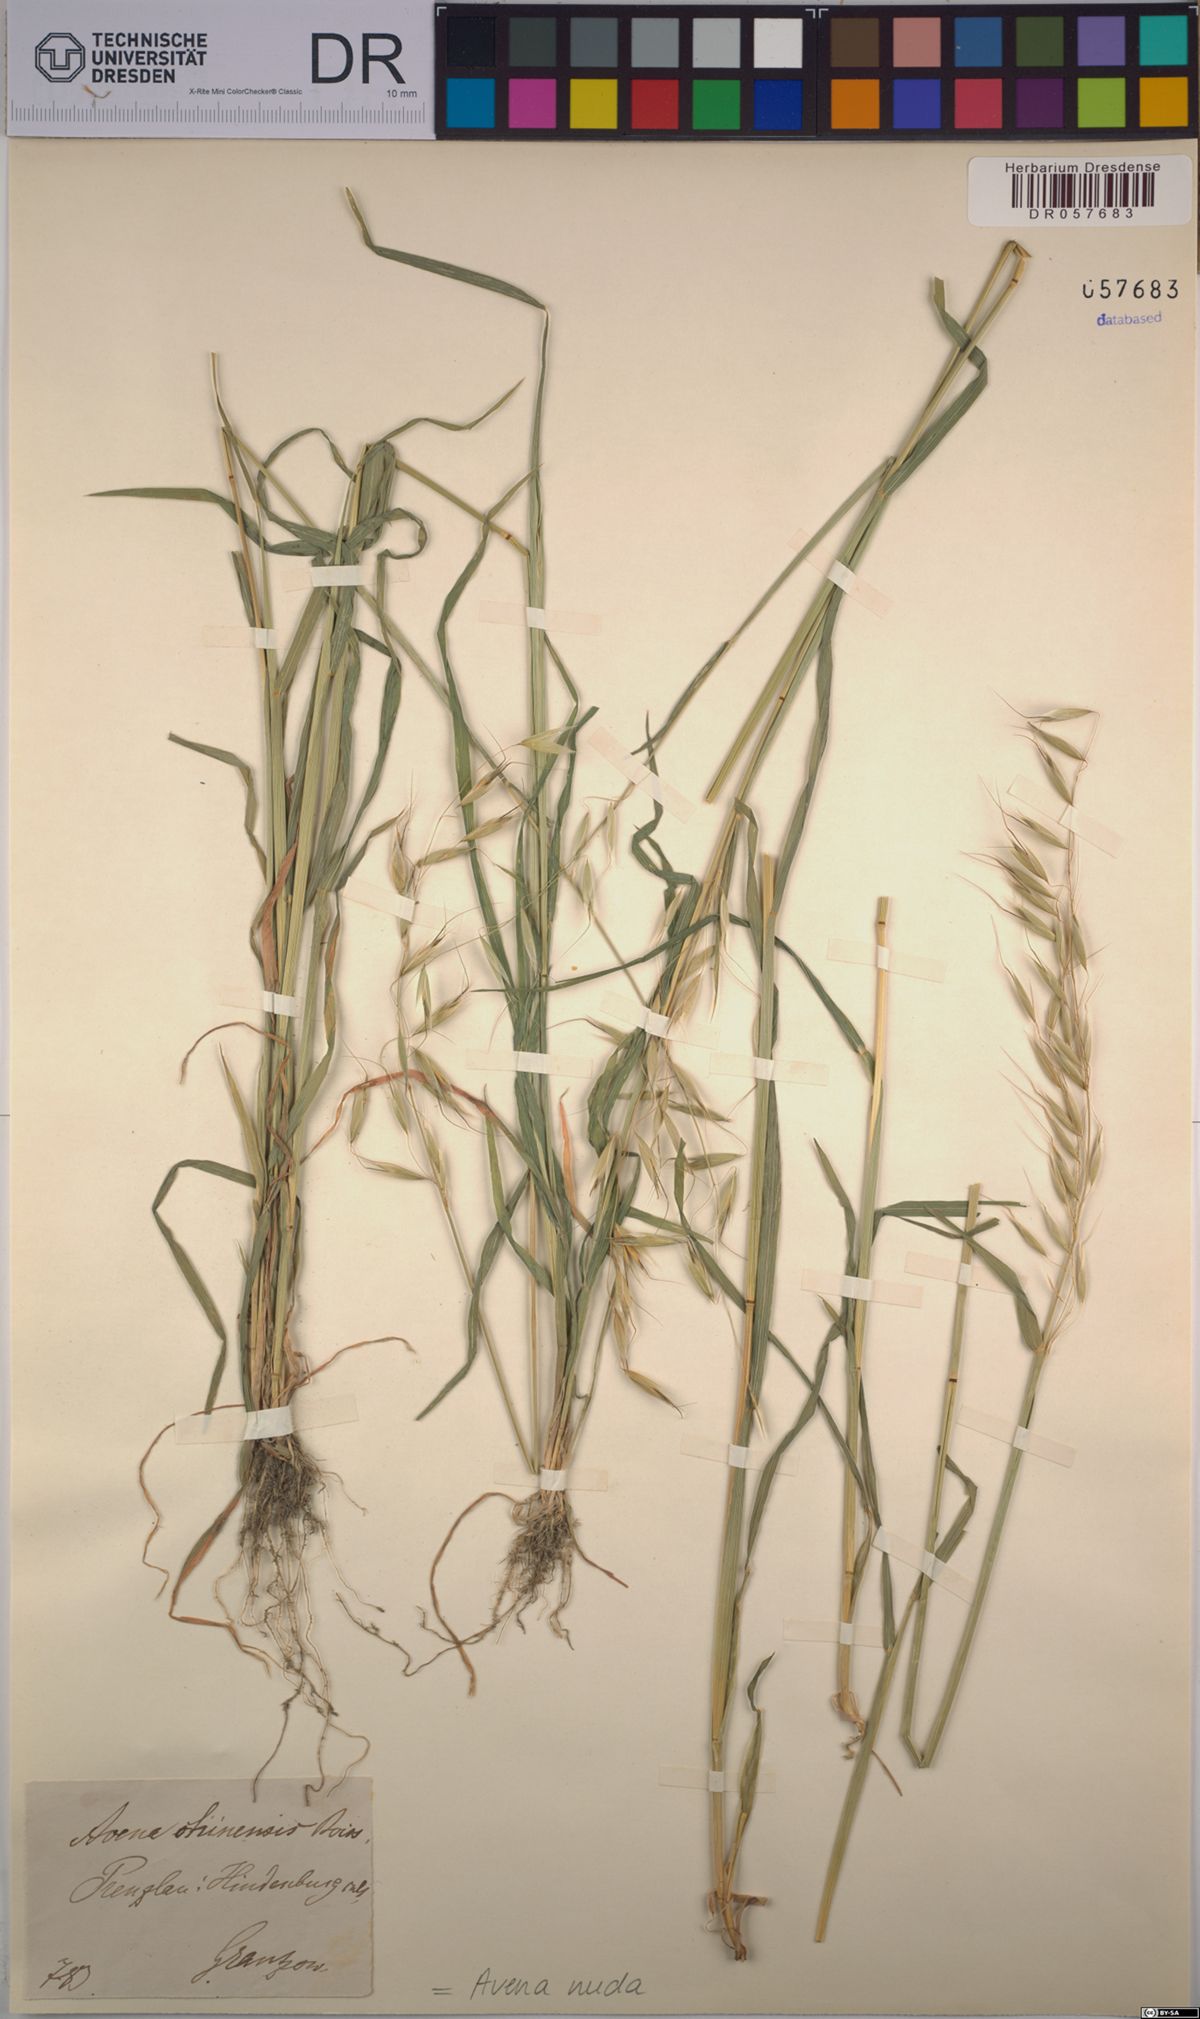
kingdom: Plantae
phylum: Tracheophyta
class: Liliopsida
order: Poales
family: Poaceae
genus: Avena
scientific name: Avena nuda
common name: Naked oat
